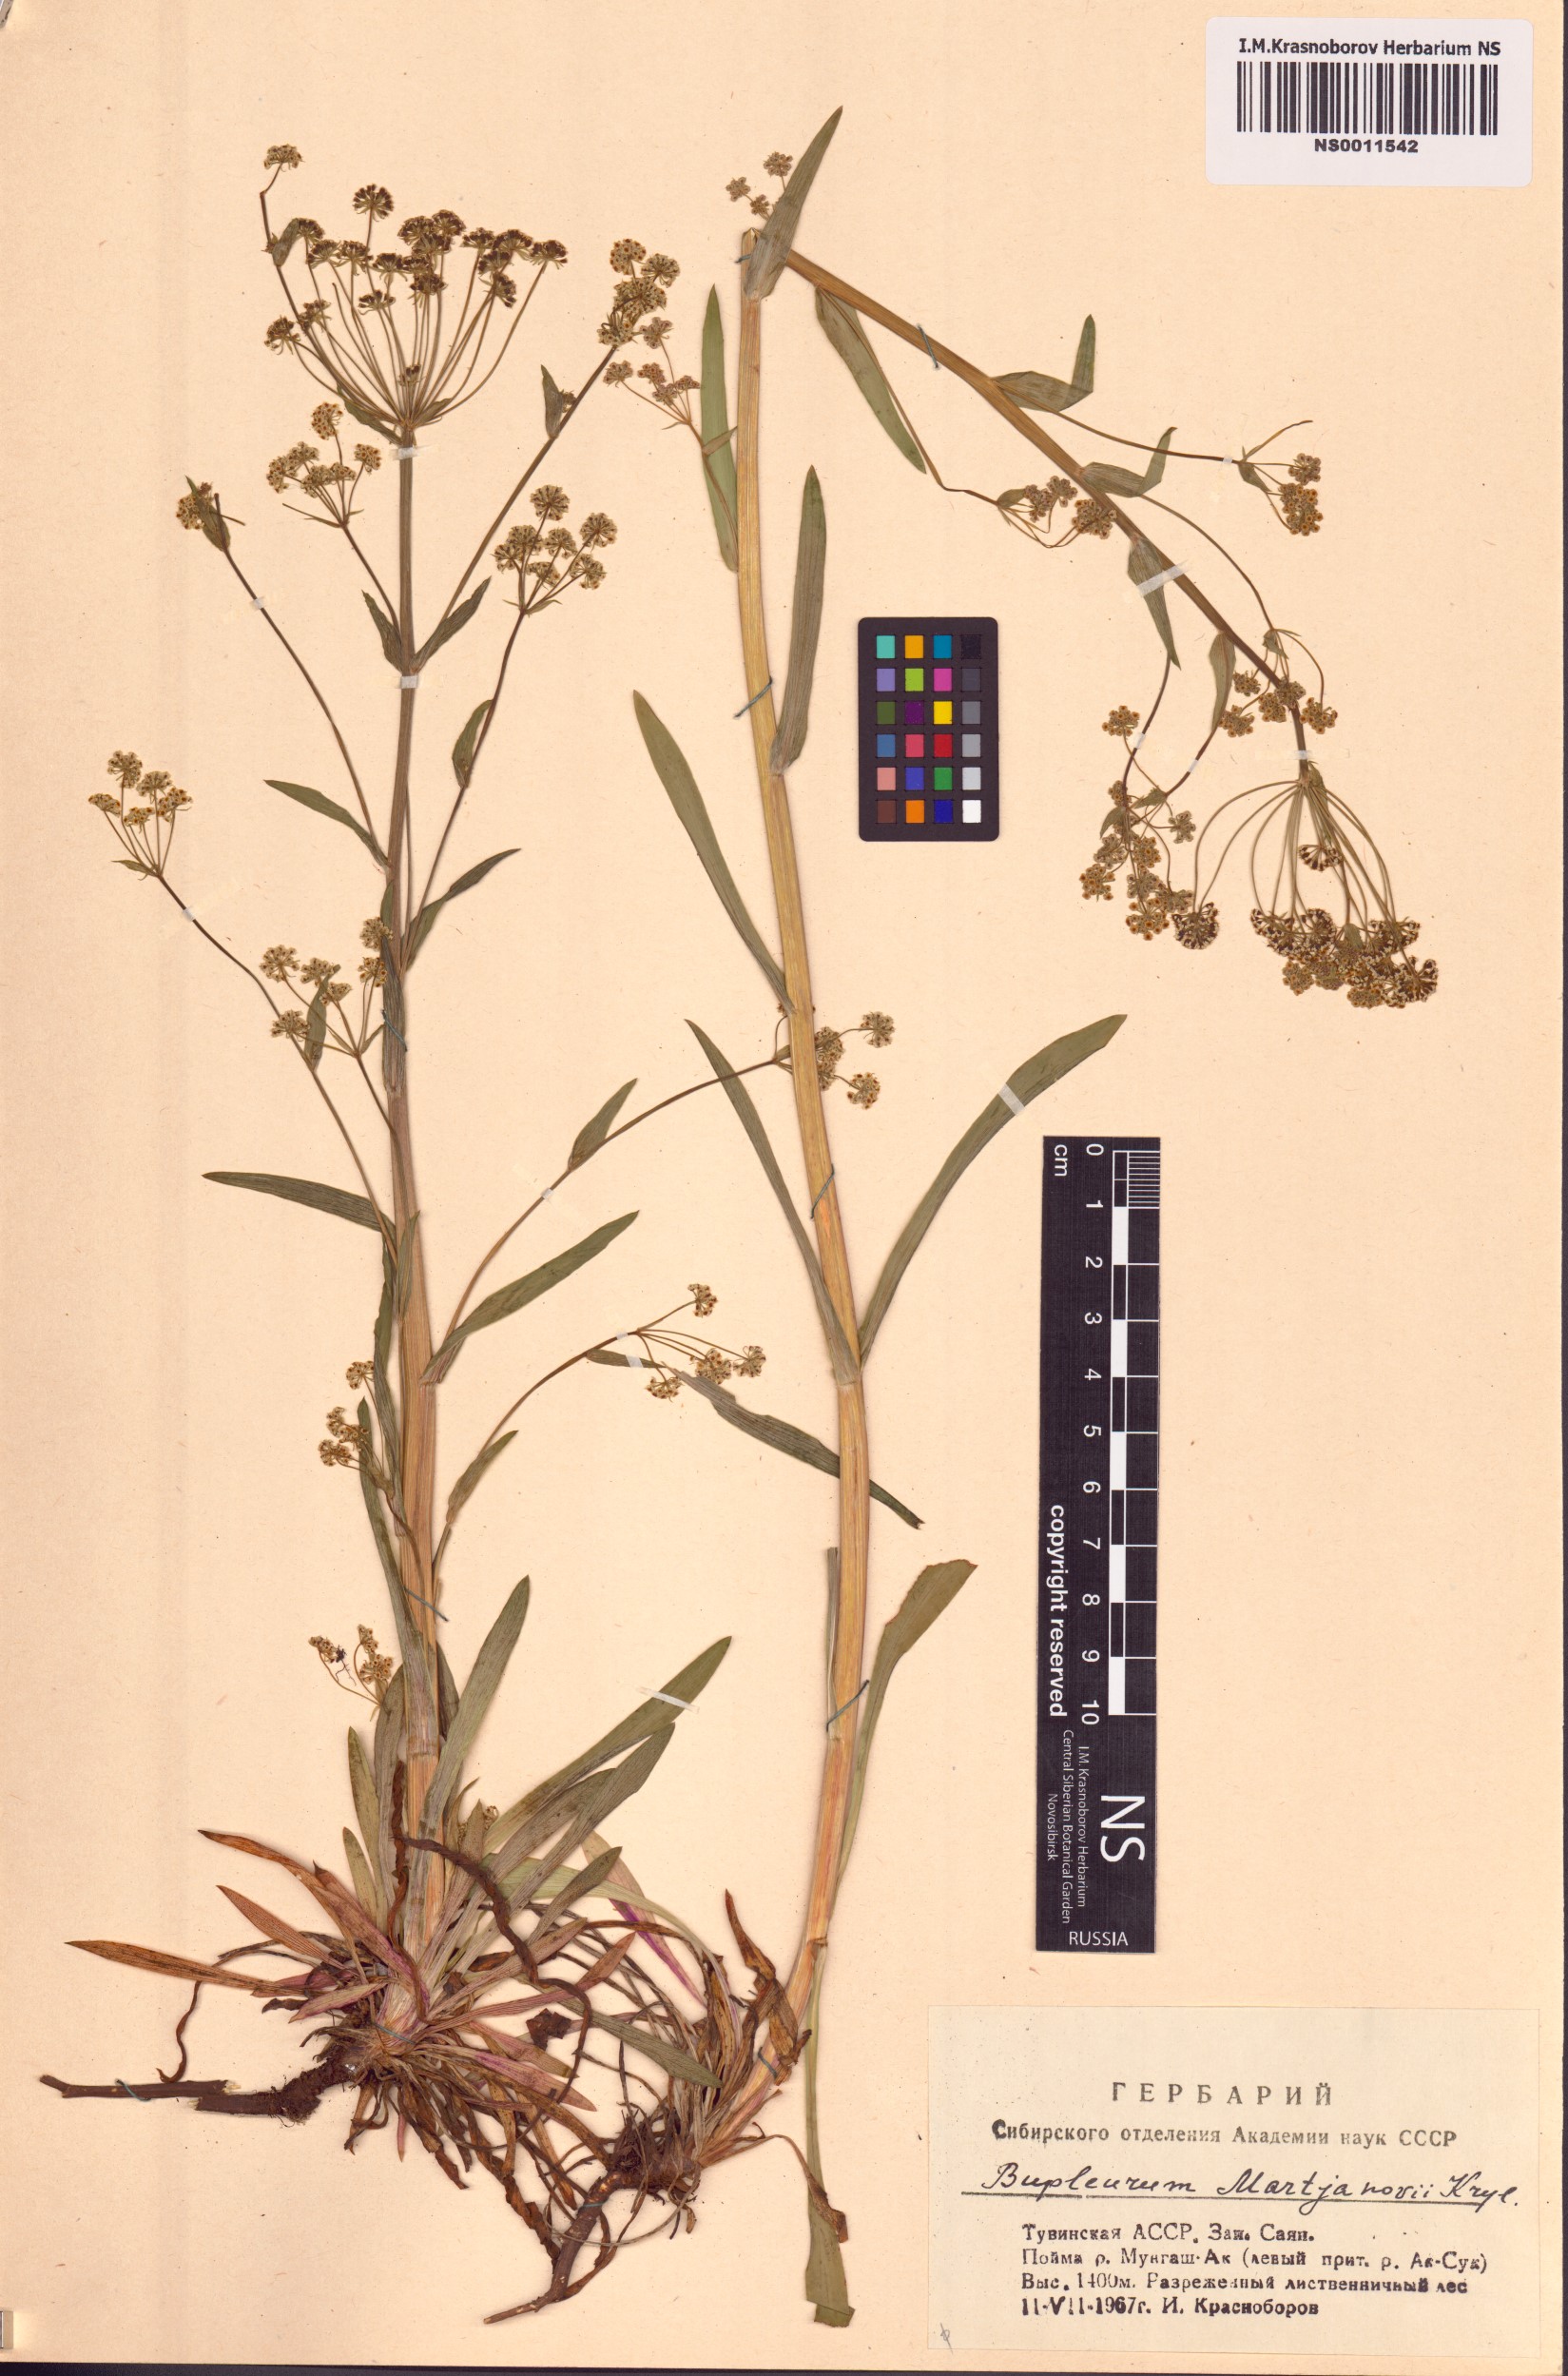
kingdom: Plantae
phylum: Tracheophyta
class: Magnoliopsida
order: Apiales
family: Apiaceae
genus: Bupleurum
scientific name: Bupleurum martjanovii
